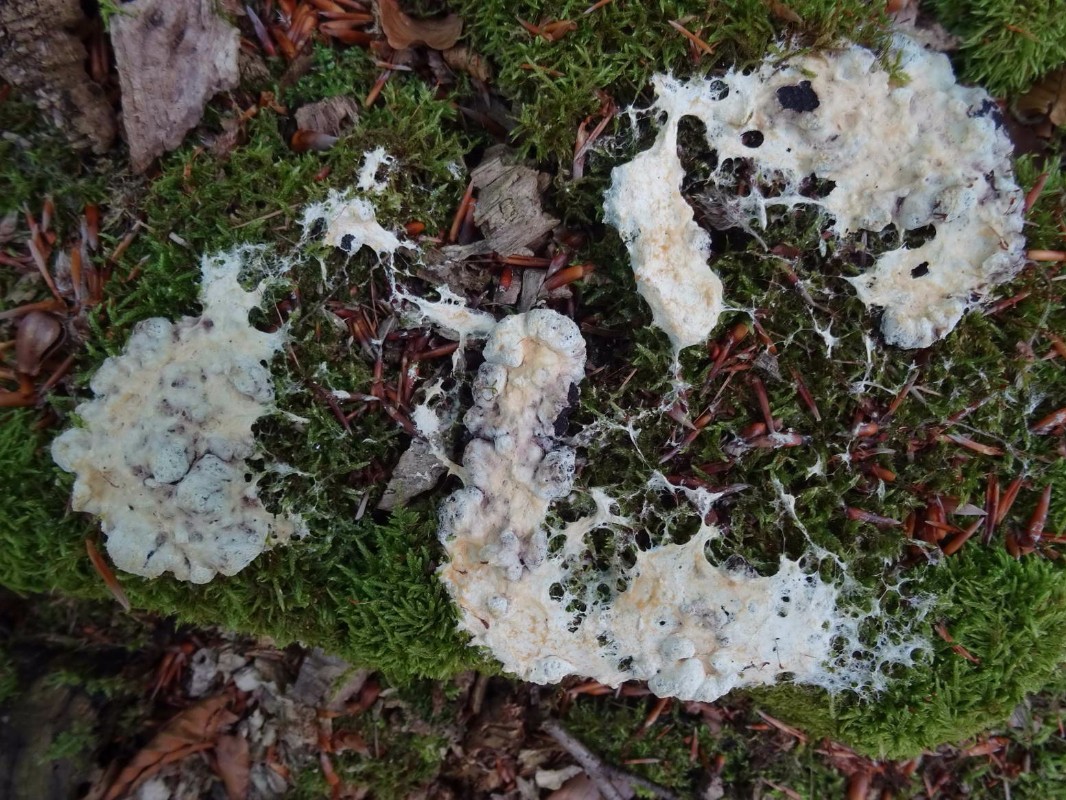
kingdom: Protozoa
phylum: Mycetozoa
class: Myxomycetes
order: Physarales
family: Physaraceae
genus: Fuligo
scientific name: Fuligo septica
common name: gul troldsmør
